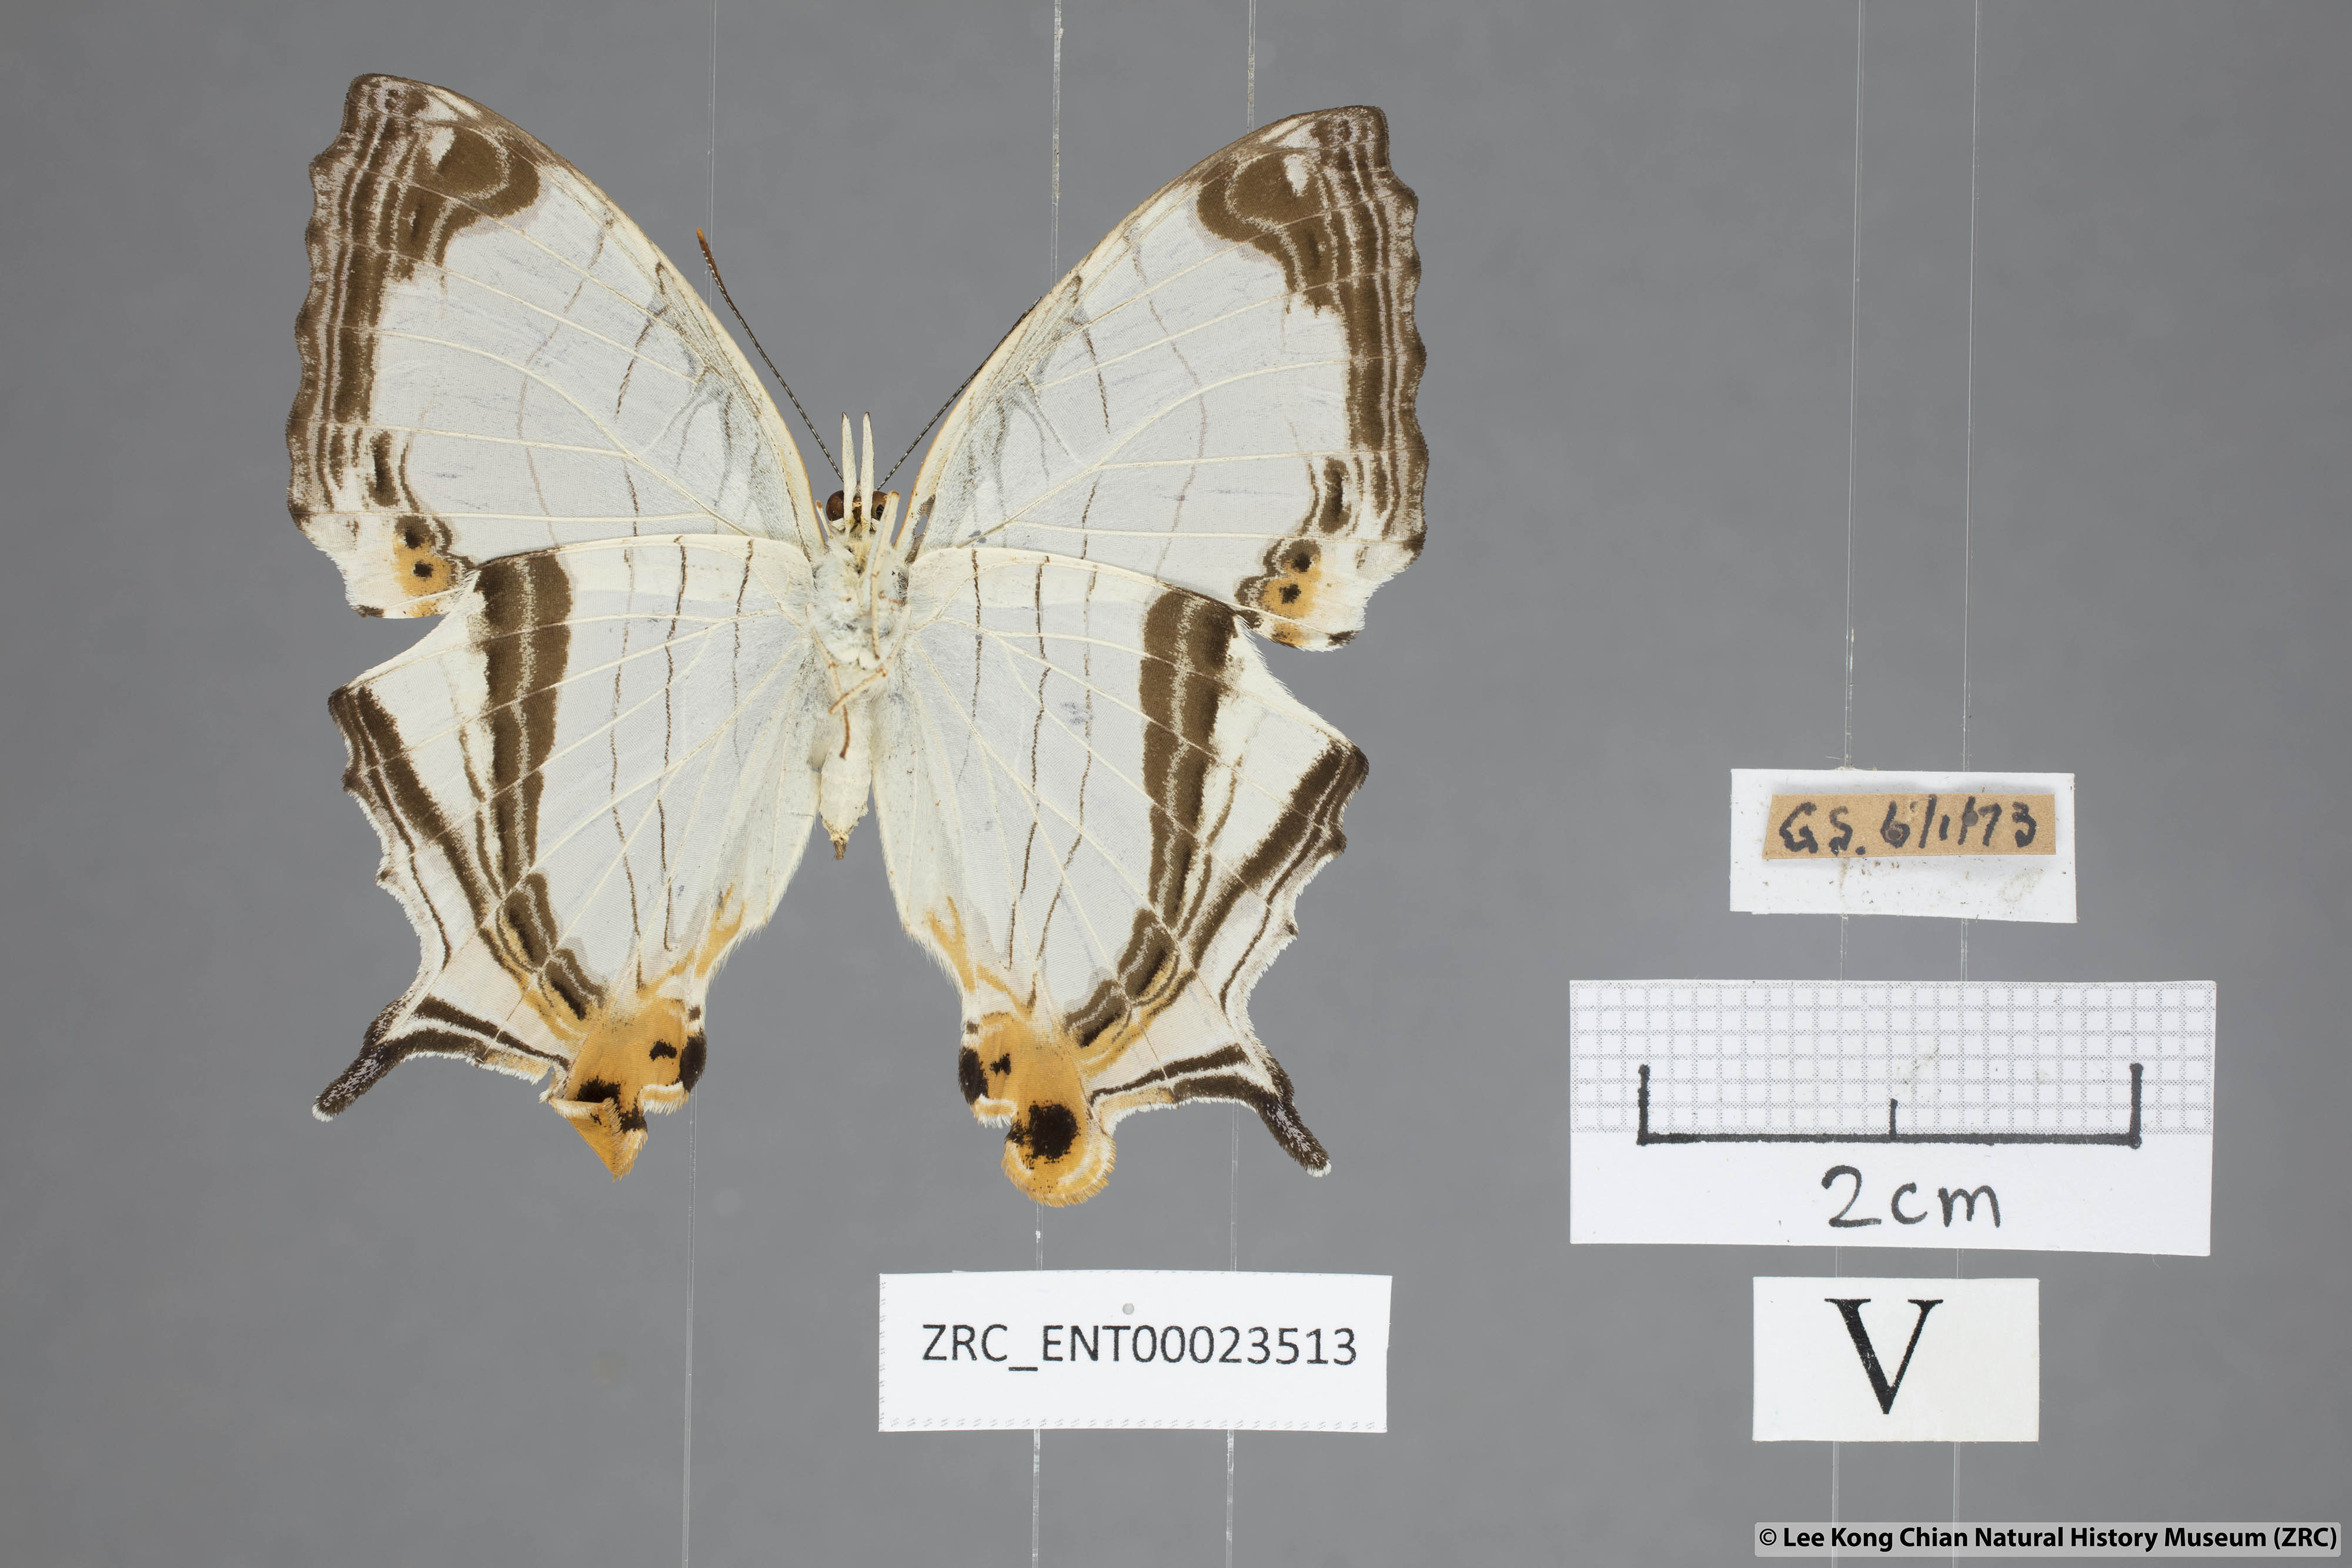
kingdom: Animalia
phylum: Arthropoda
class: Insecta
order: Lepidoptera
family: Nymphalidae
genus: Cyrestis
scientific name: Cyrestis nivea
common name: Straight line mapwing
